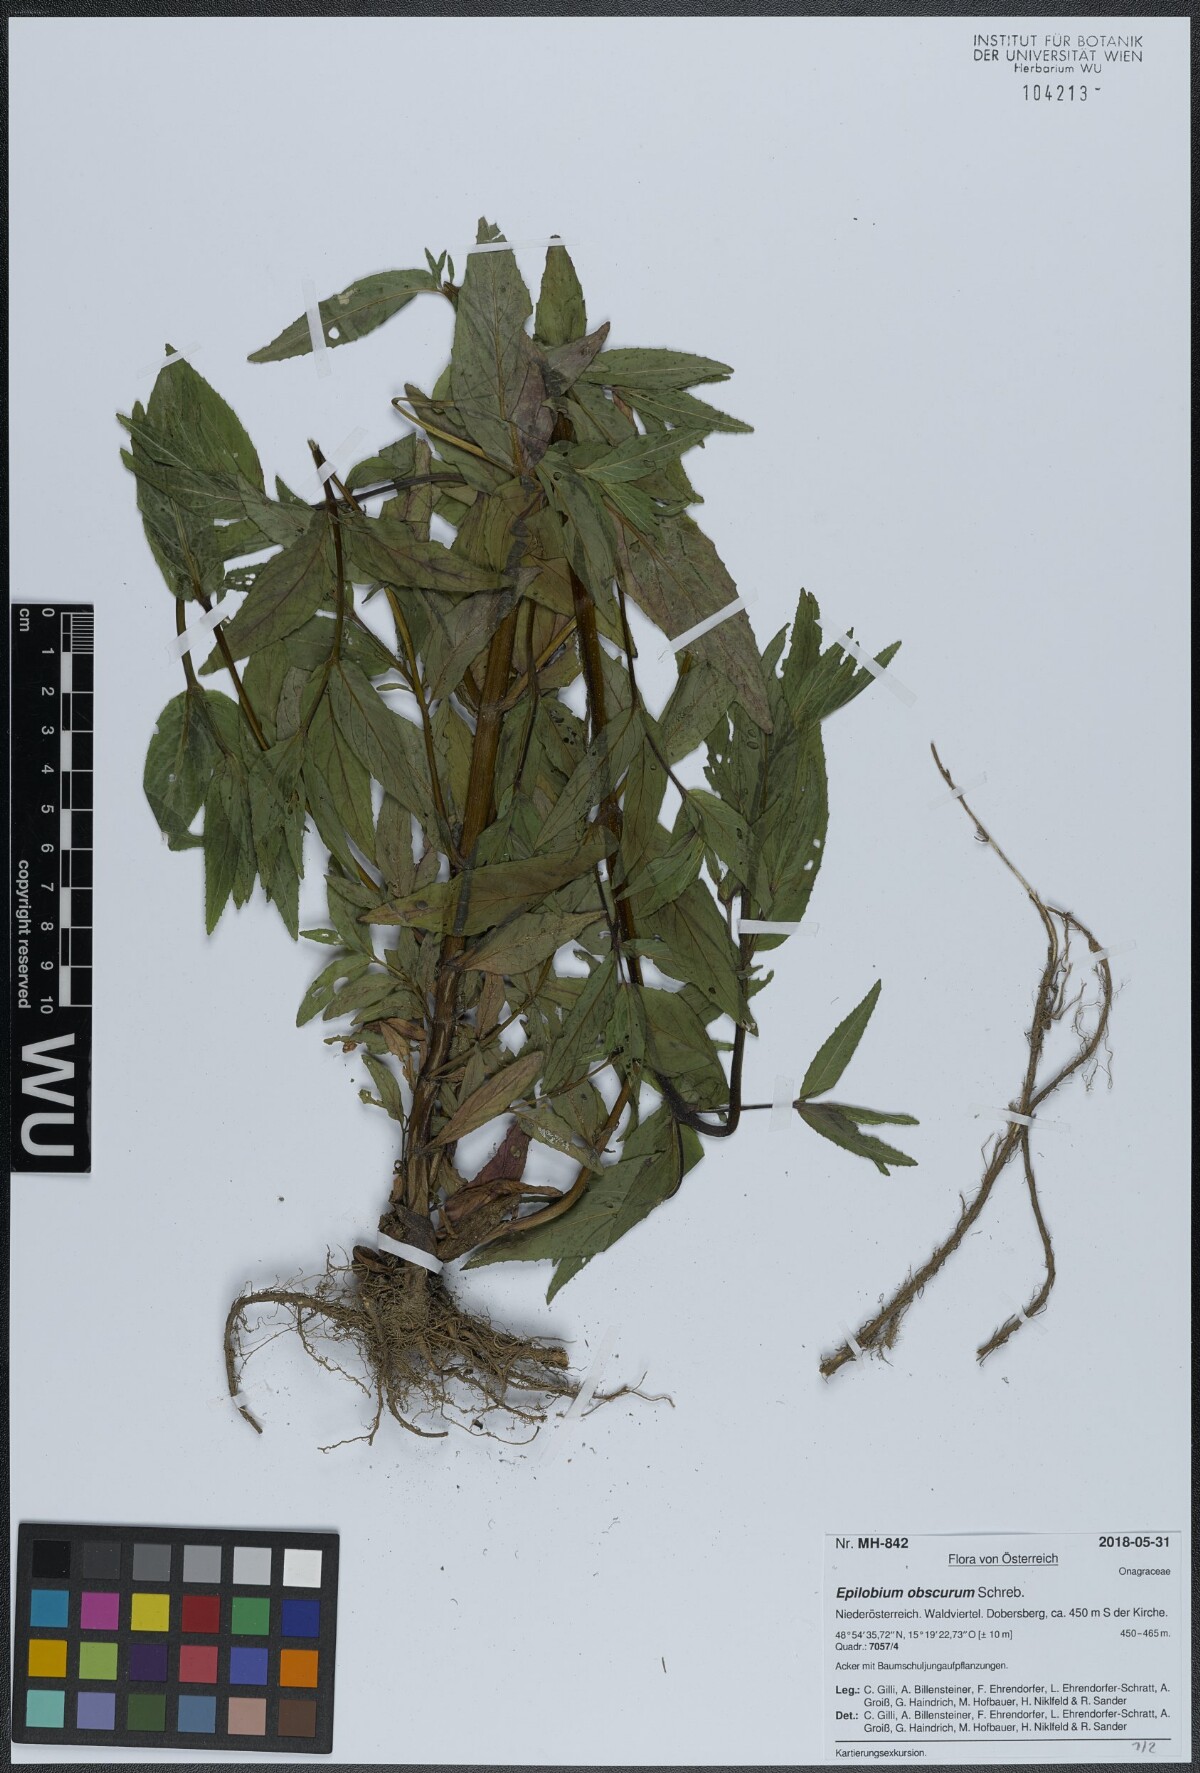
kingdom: Plantae
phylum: Tracheophyta
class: Magnoliopsida
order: Myrtales
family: Onagraceae
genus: Epilobium
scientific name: Epilobium obscurum
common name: Short-fruited willowherb
